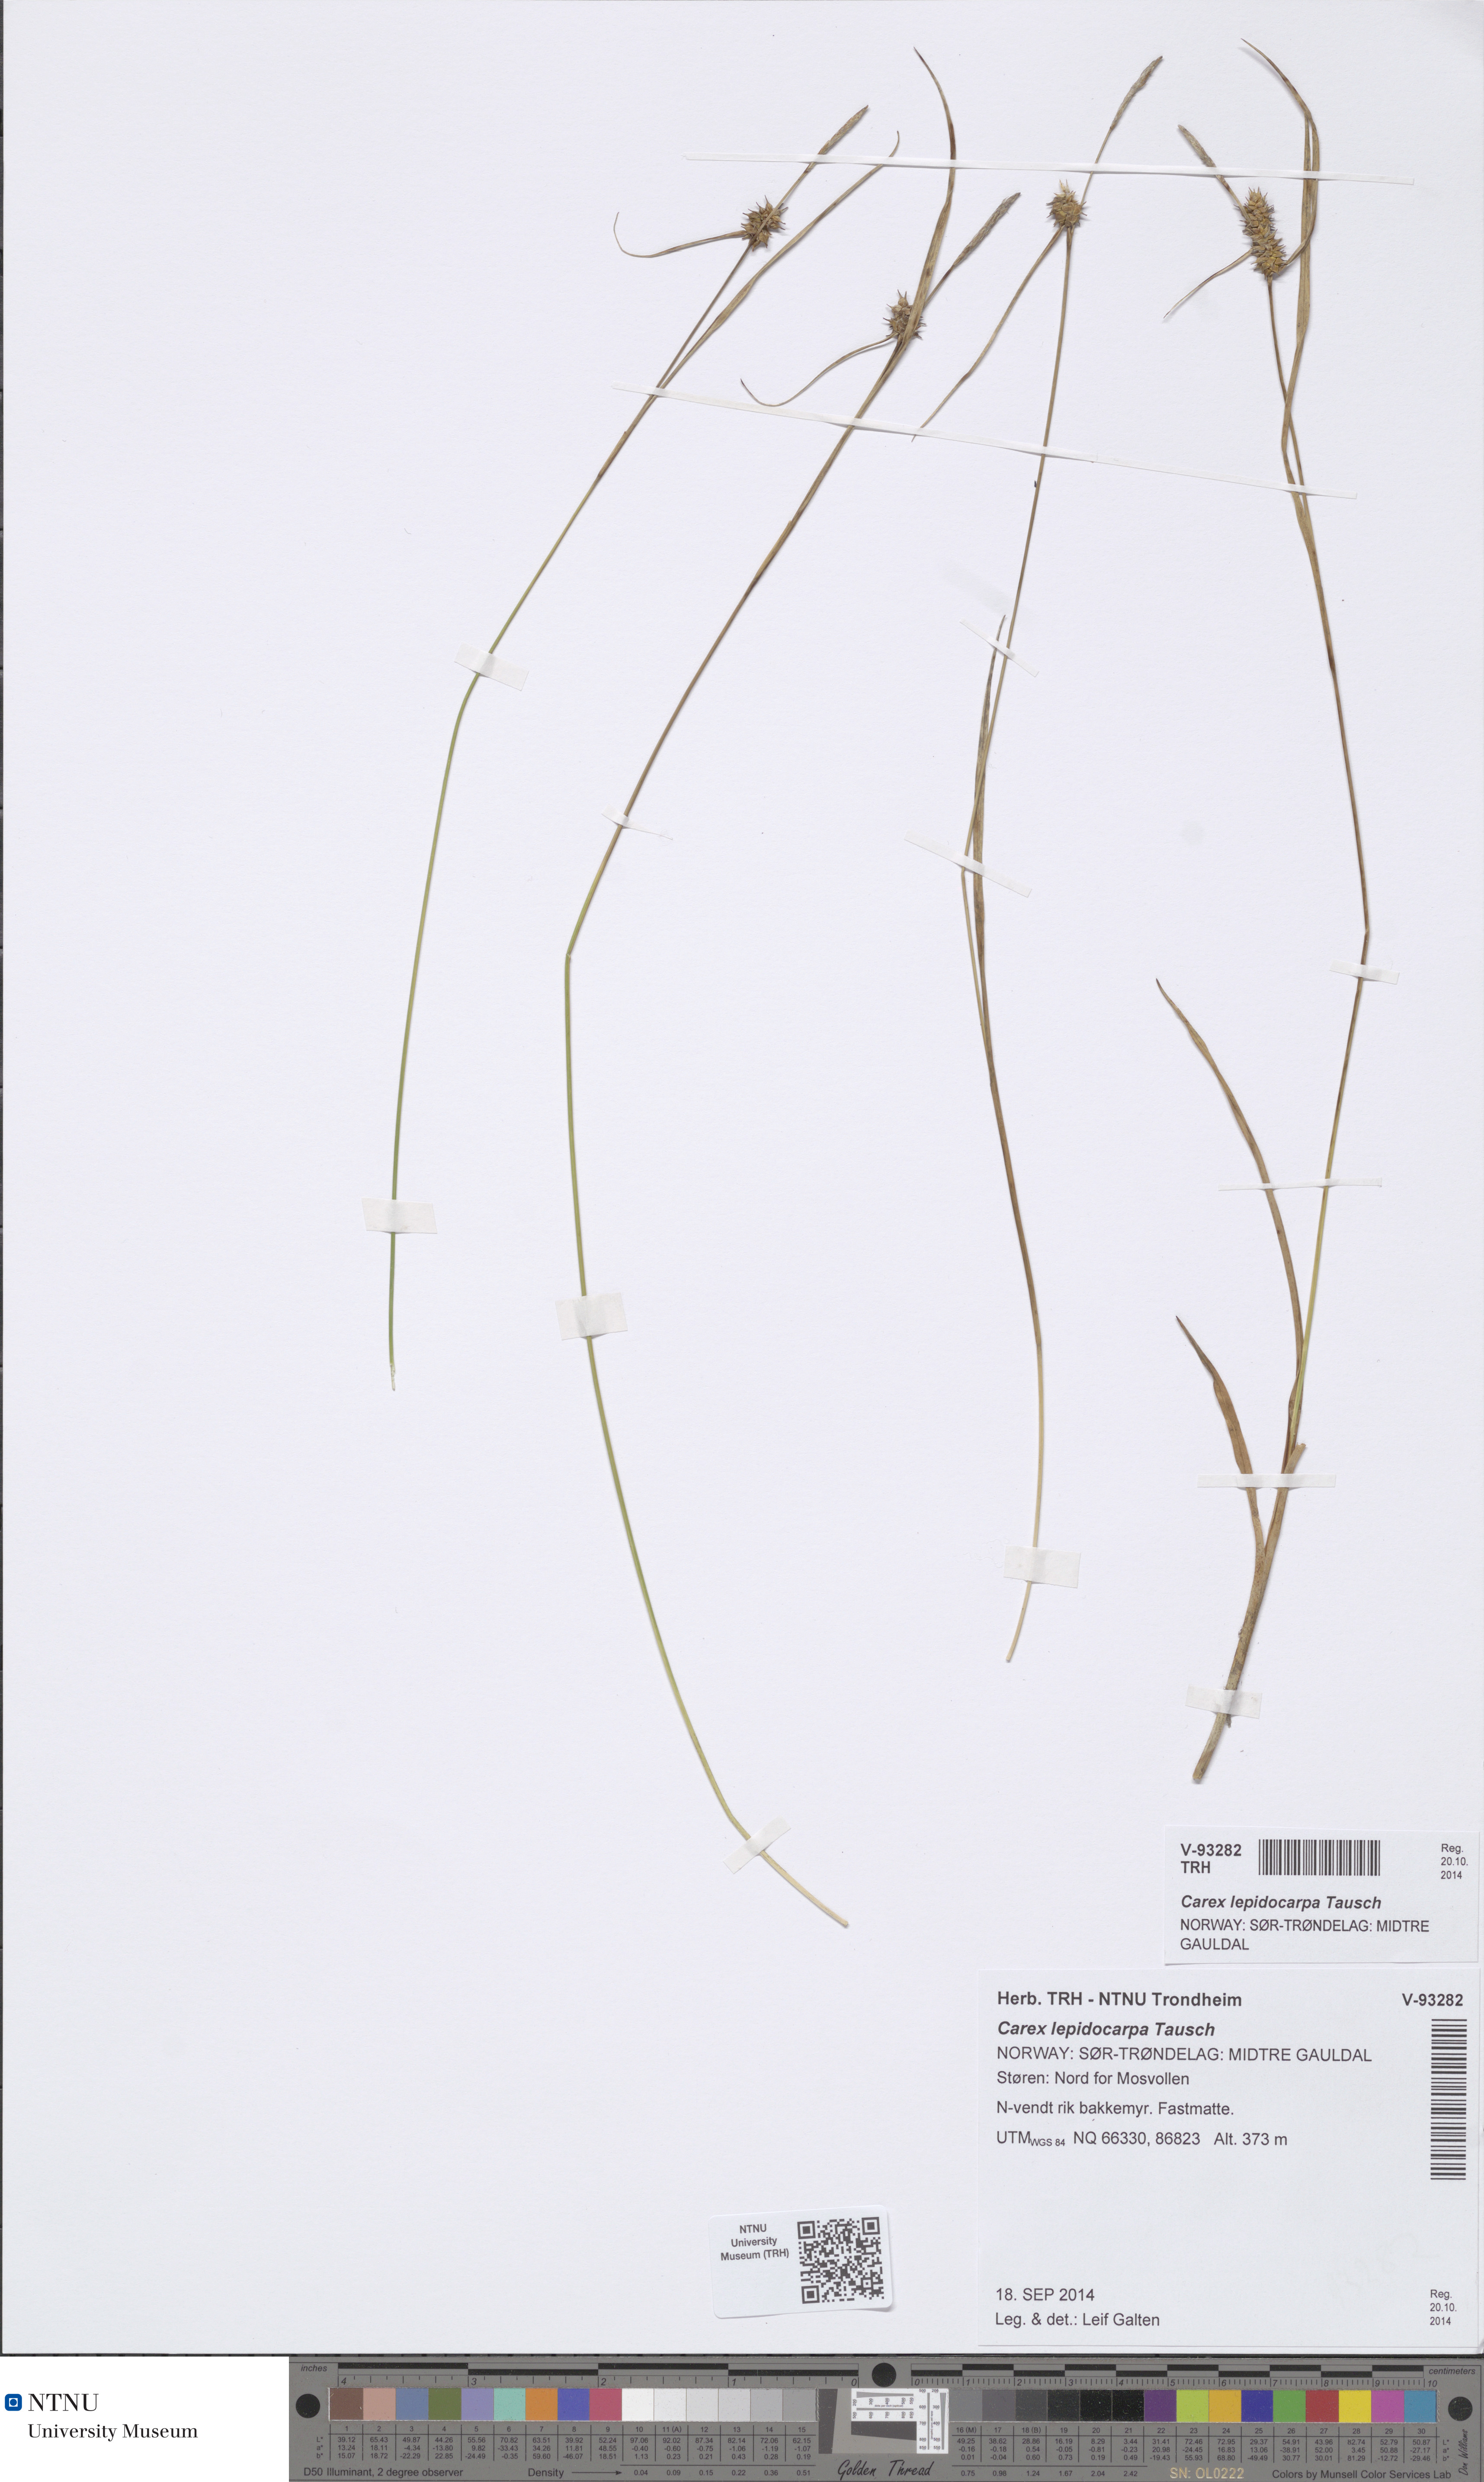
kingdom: Plantae
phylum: Tracheophyta
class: Liliopsida
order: Poales
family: Cyperaceae
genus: Carex
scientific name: Carex lepidocarpa
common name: Long-stalked yellow-sedge
